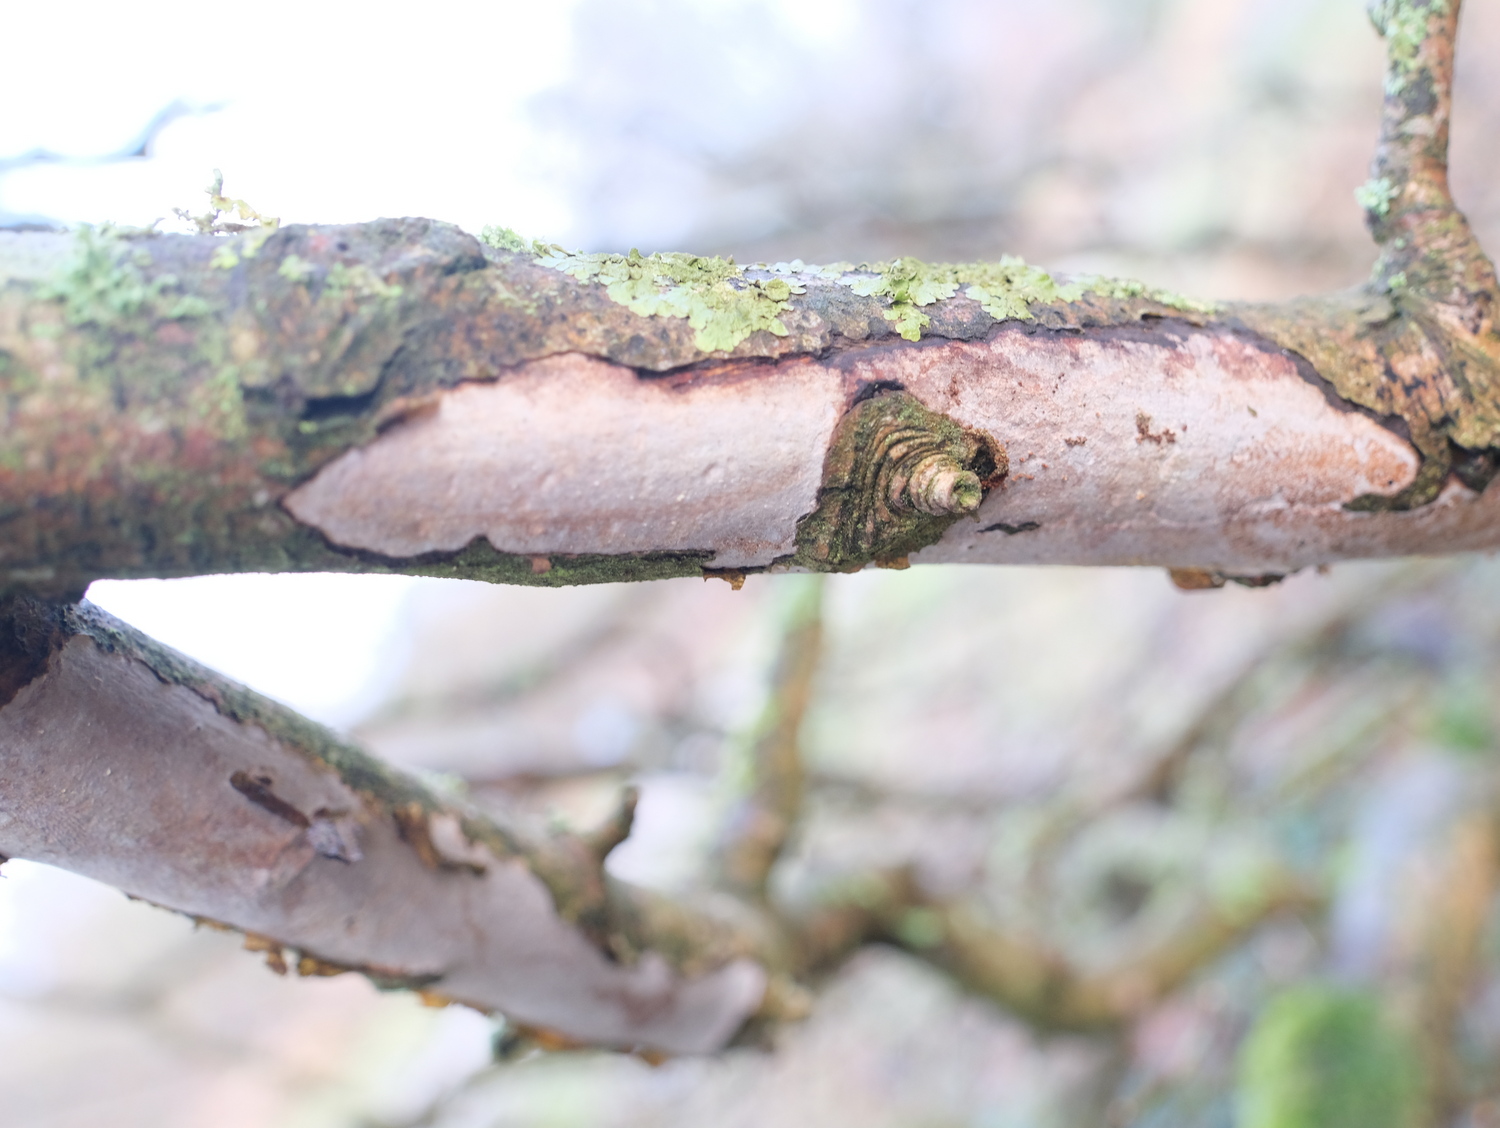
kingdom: Fungi
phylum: Basidiomycota
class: Agaricomycetes
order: Corticiales
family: Vuilleminiaceae
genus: Vuilleminia
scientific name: Vuilleminia cystidiata
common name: tjørne-barksprænger
